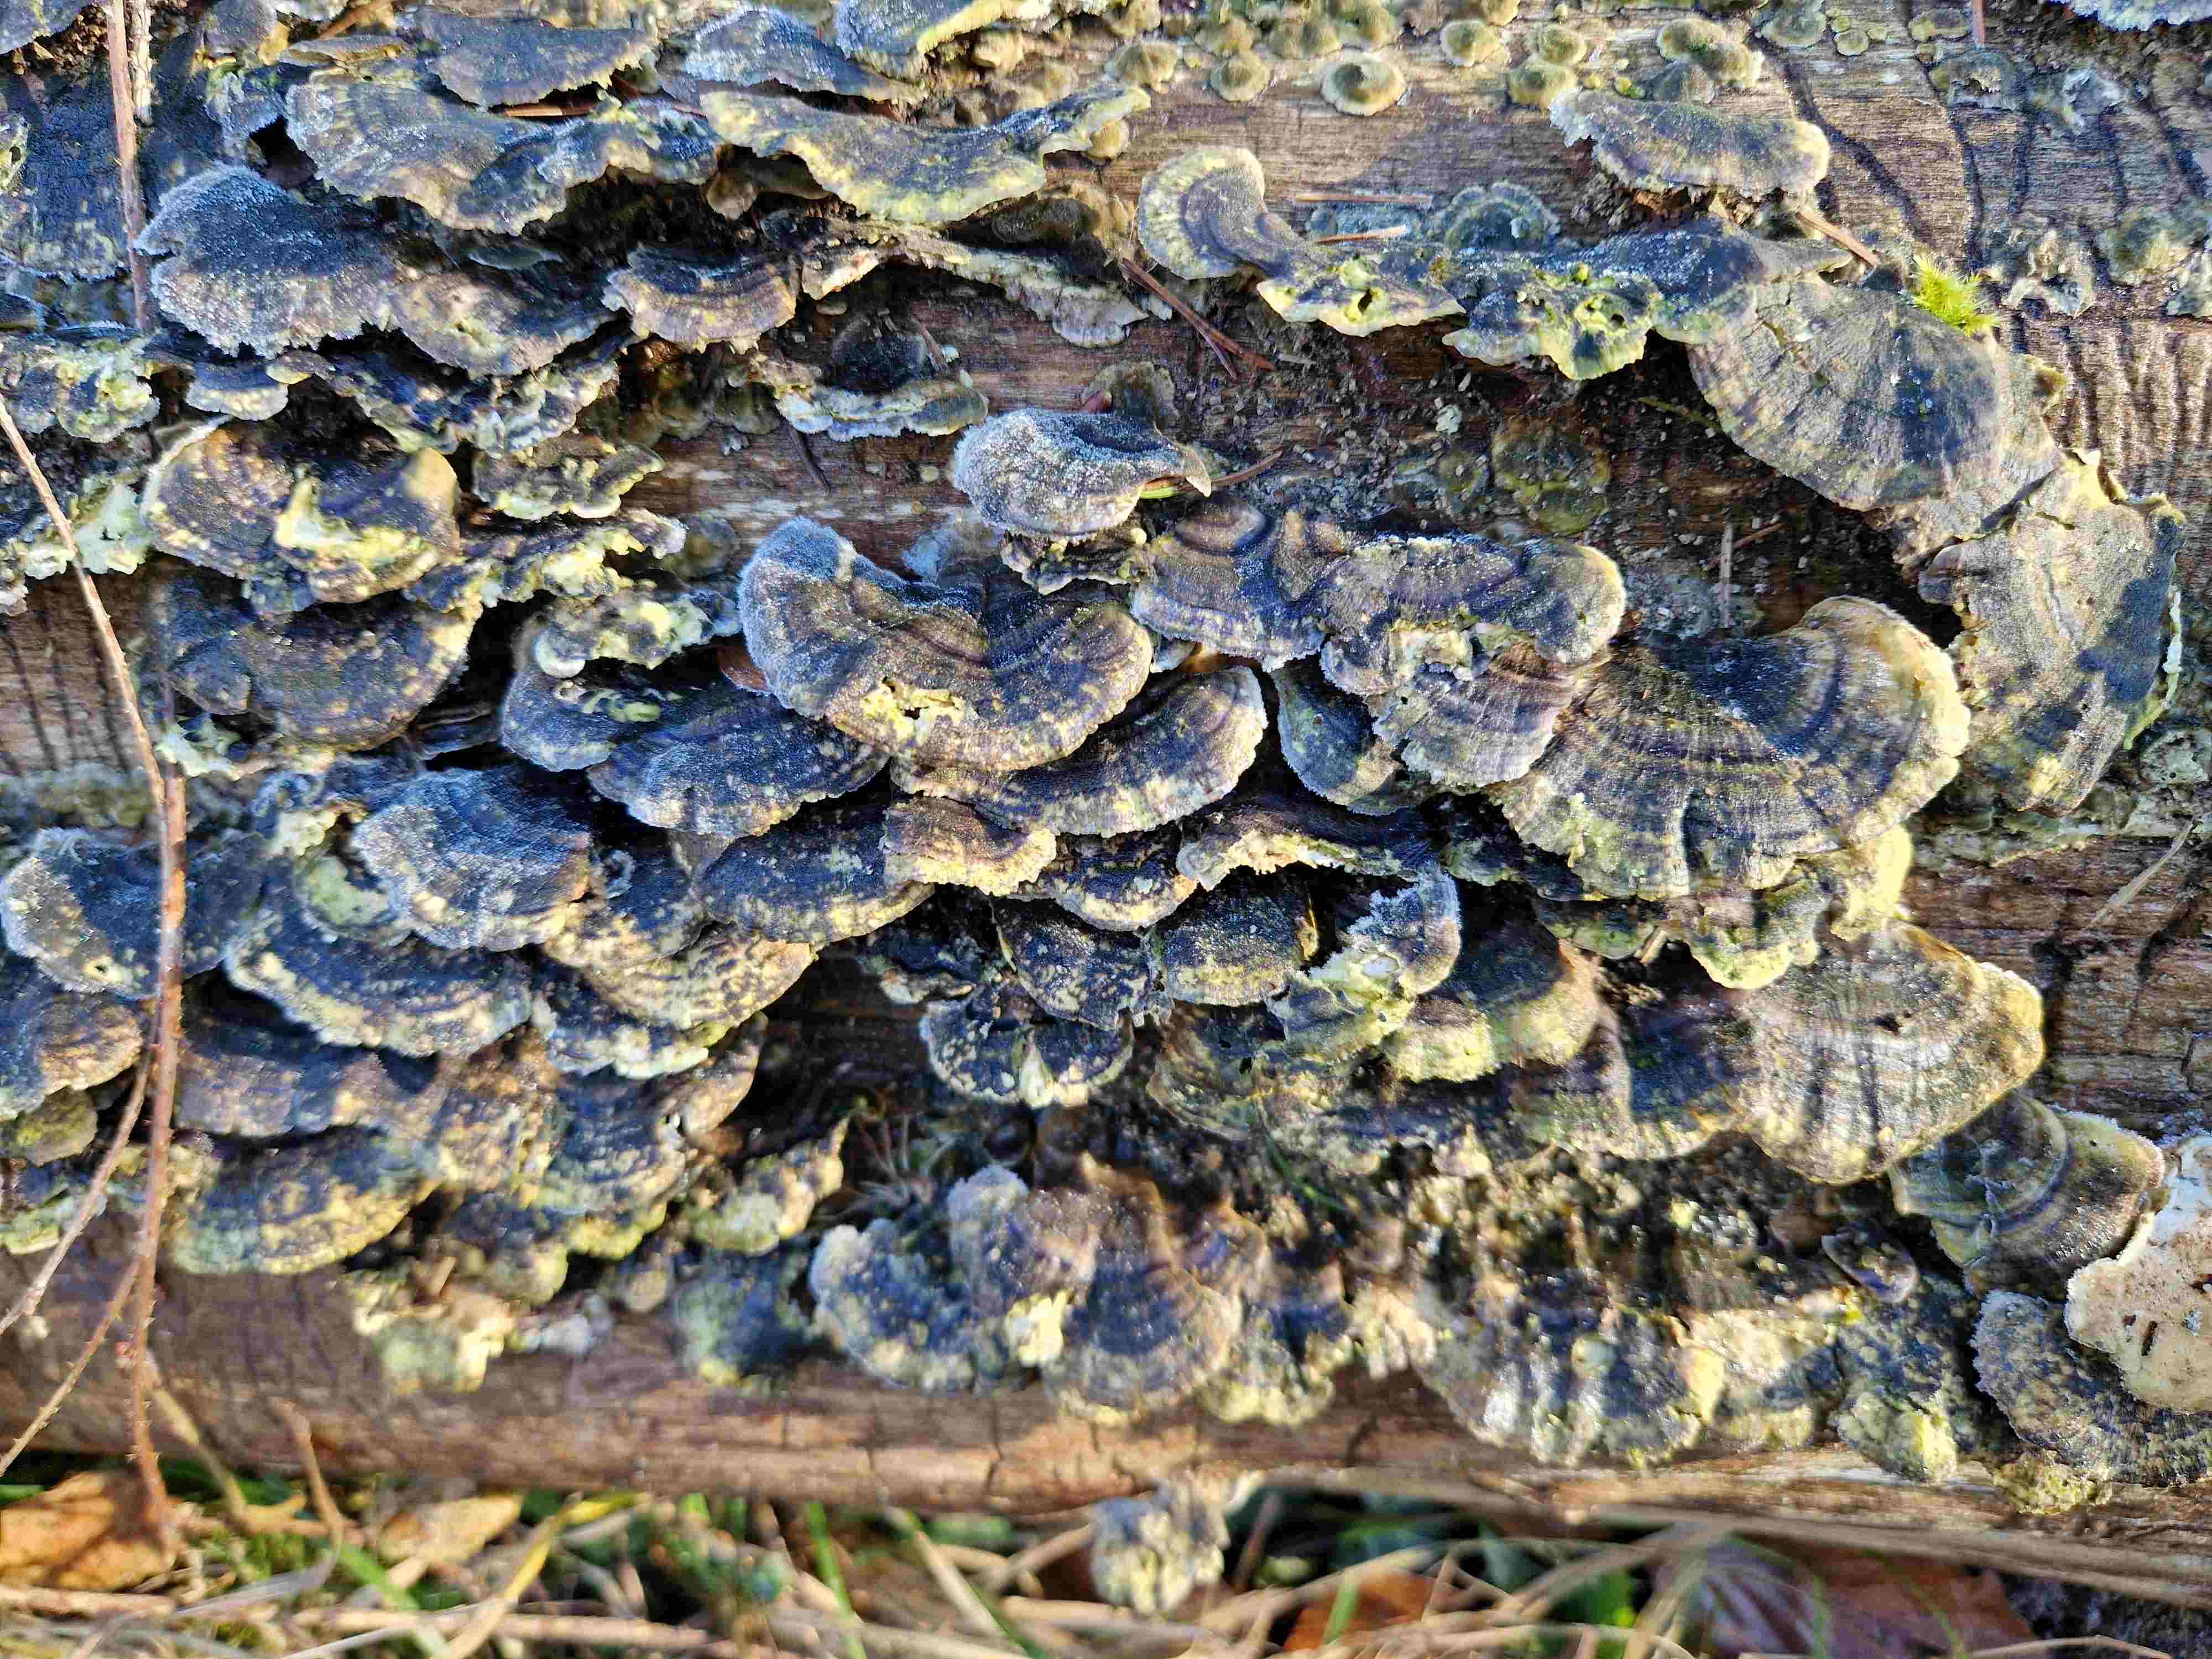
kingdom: Fungi
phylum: Basidiomycota
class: Agaricomycetes
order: Polyporales
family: Polyporaceae
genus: Trametes
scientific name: Trametes versicolor
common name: broget læderporesvamp
